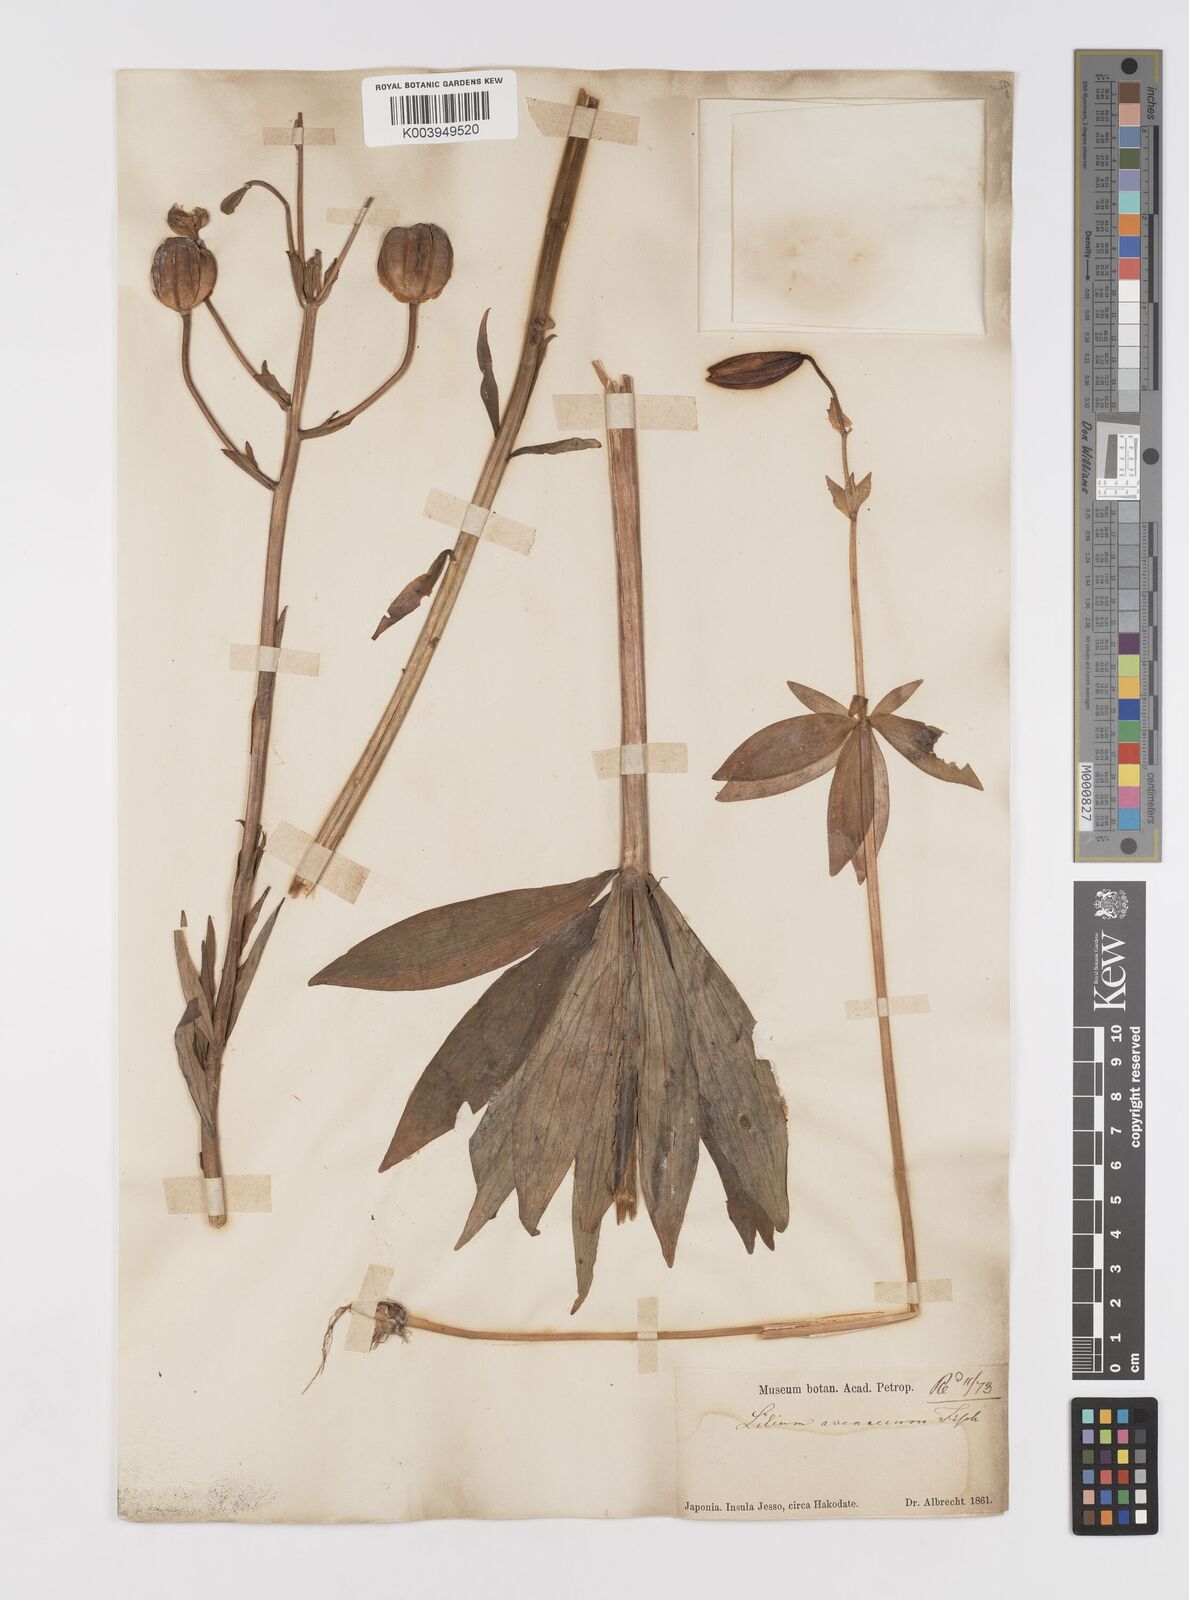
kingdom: Plantae
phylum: Tracheophyta
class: Liliopsida
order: Liliales
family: Liliaceae
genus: Lilium
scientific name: Lilium medeoloides
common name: Wheel lily
